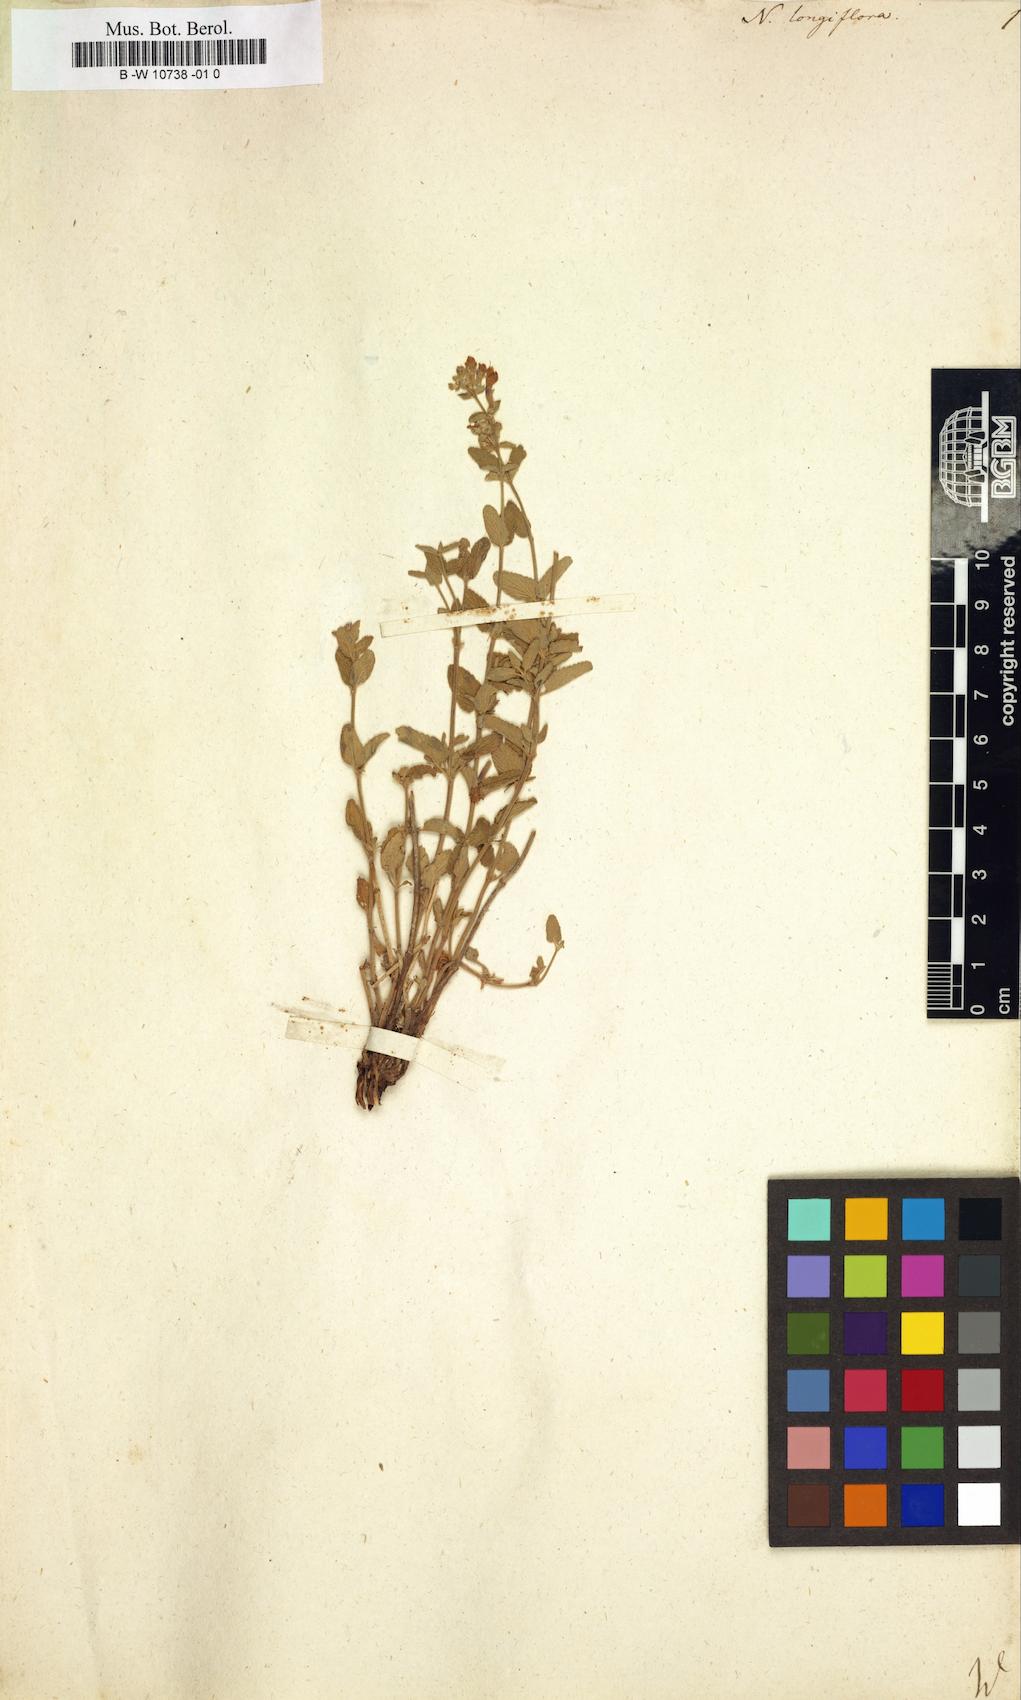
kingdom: Plantae
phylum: Tracheophyta
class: Magnoliopsida
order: Lamiales
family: Lamiaceae
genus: Nepeta
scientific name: Nepeta longiflora
